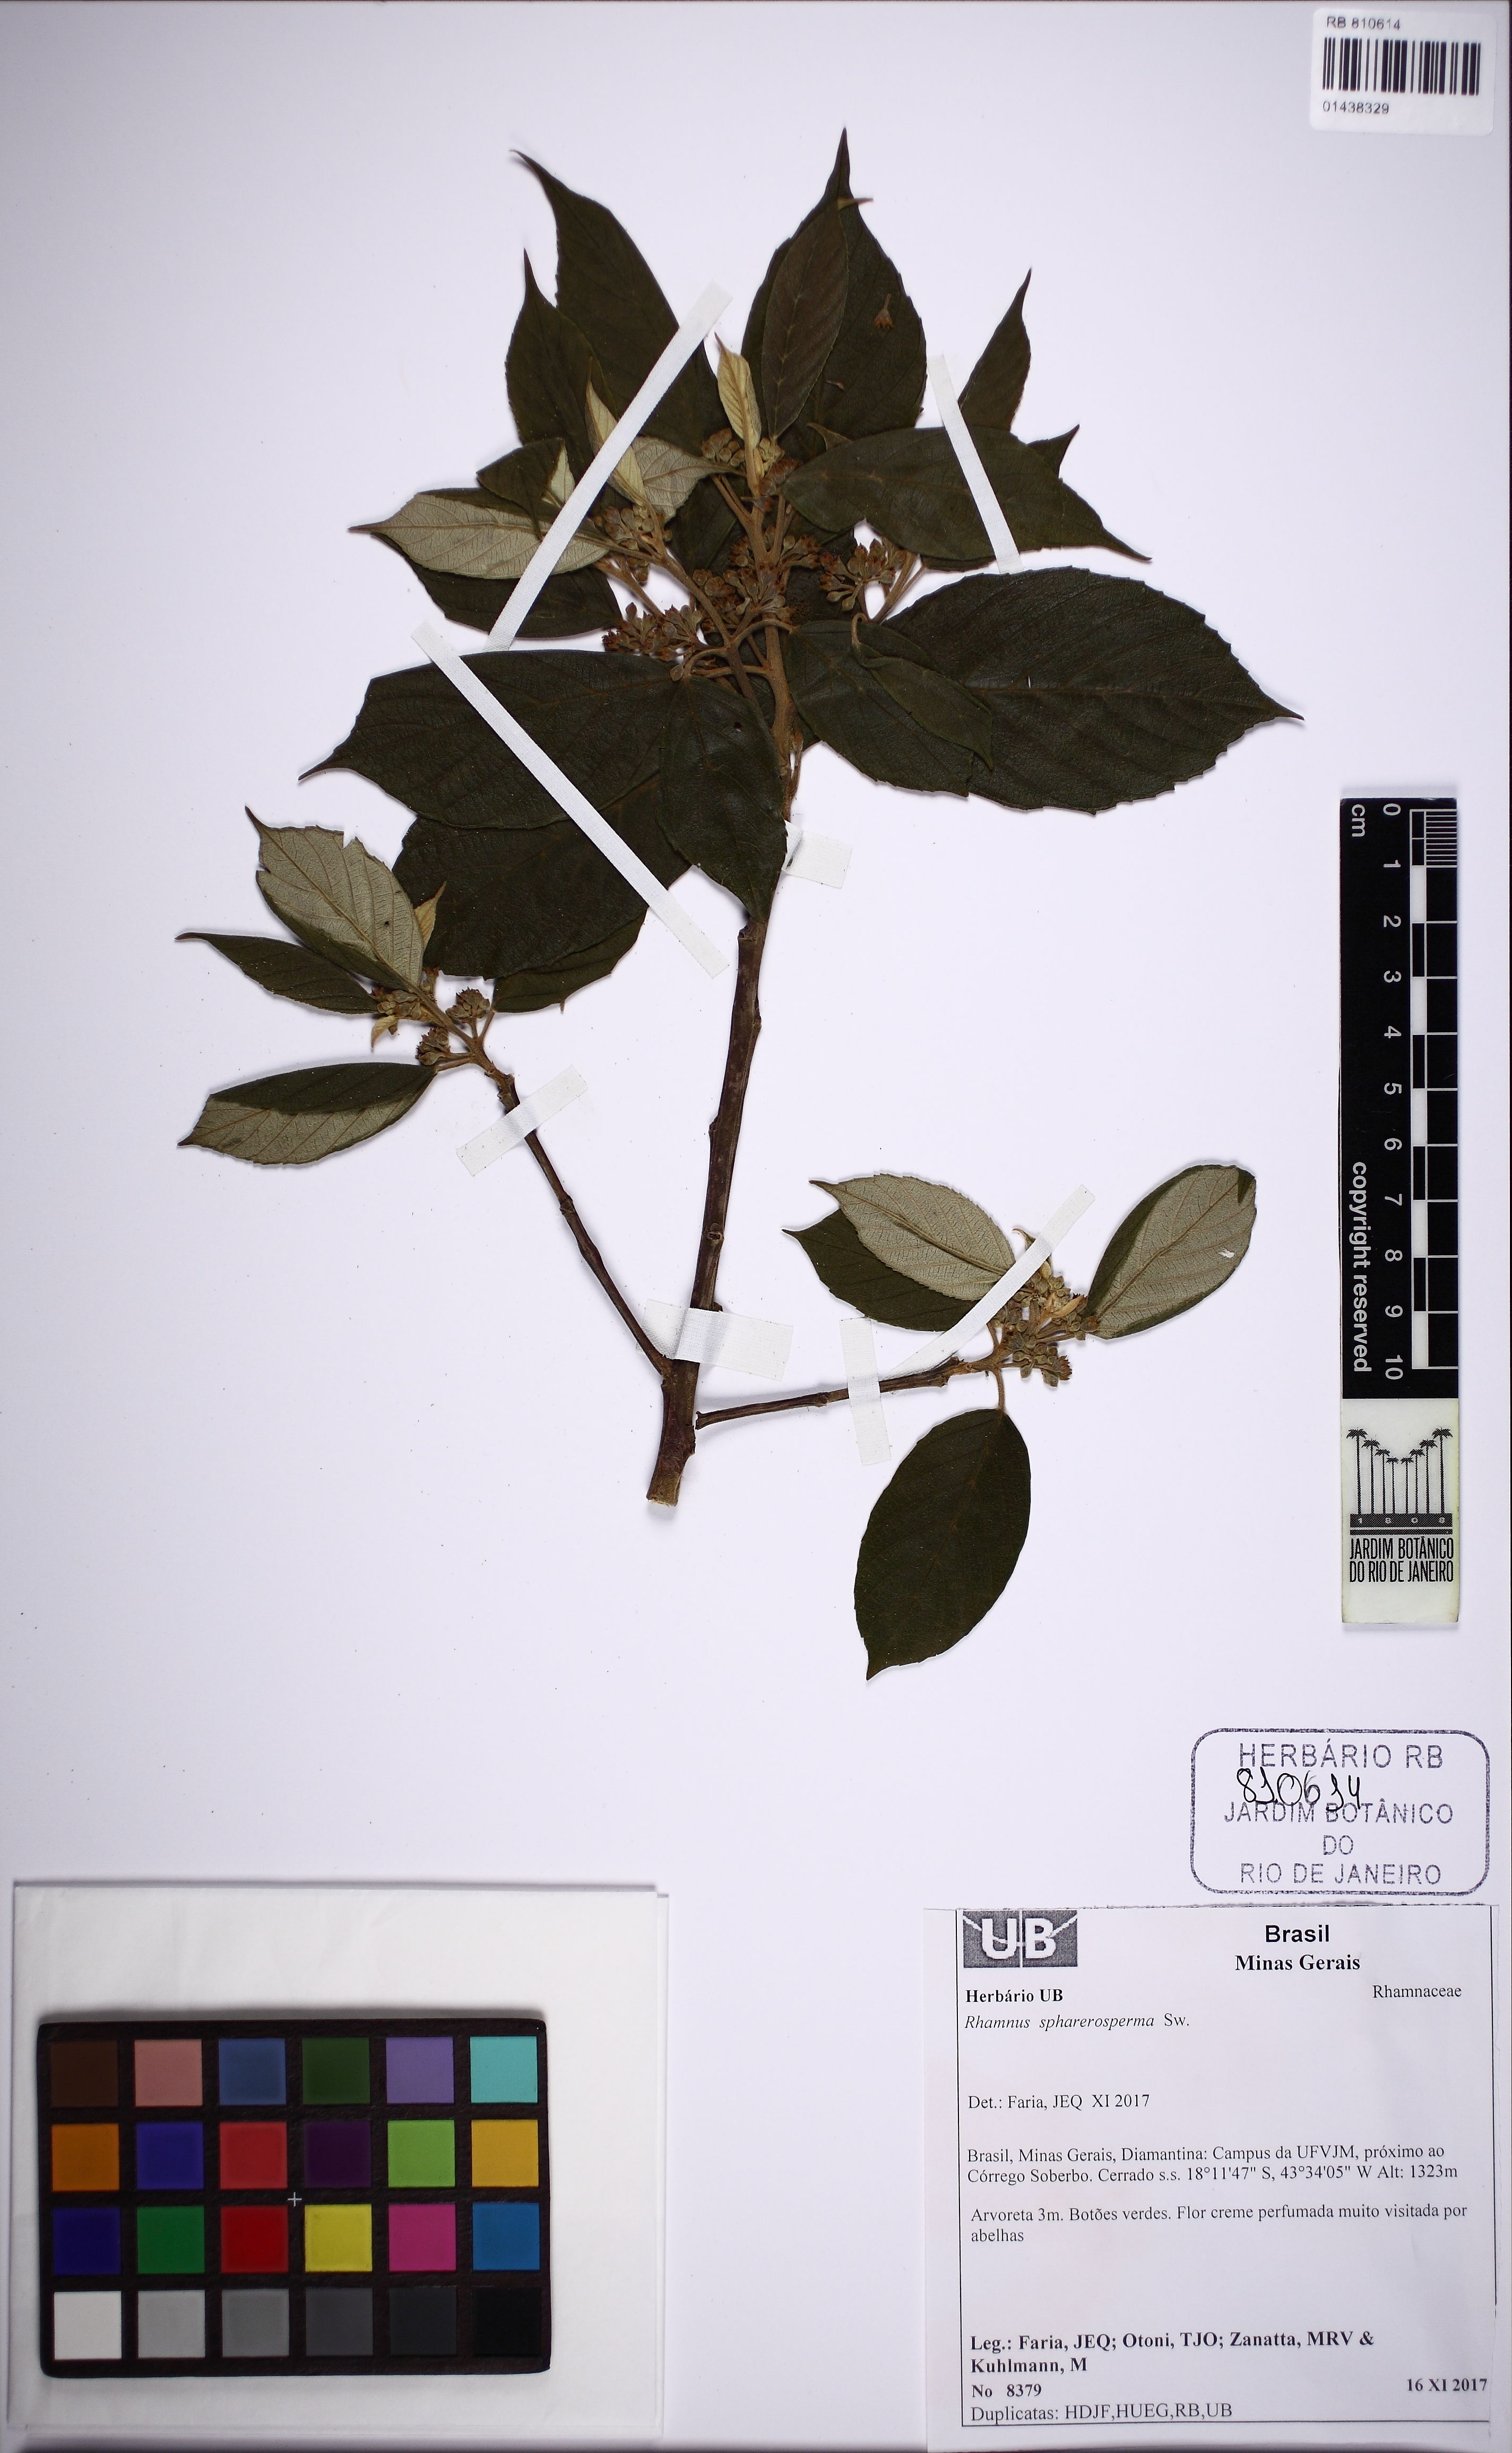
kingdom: Plantae
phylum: Tracheophyta
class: Magnoliopsida
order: Rosales
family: Rhamnaceae
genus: Frangula
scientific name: Frangula sphaerosperma
